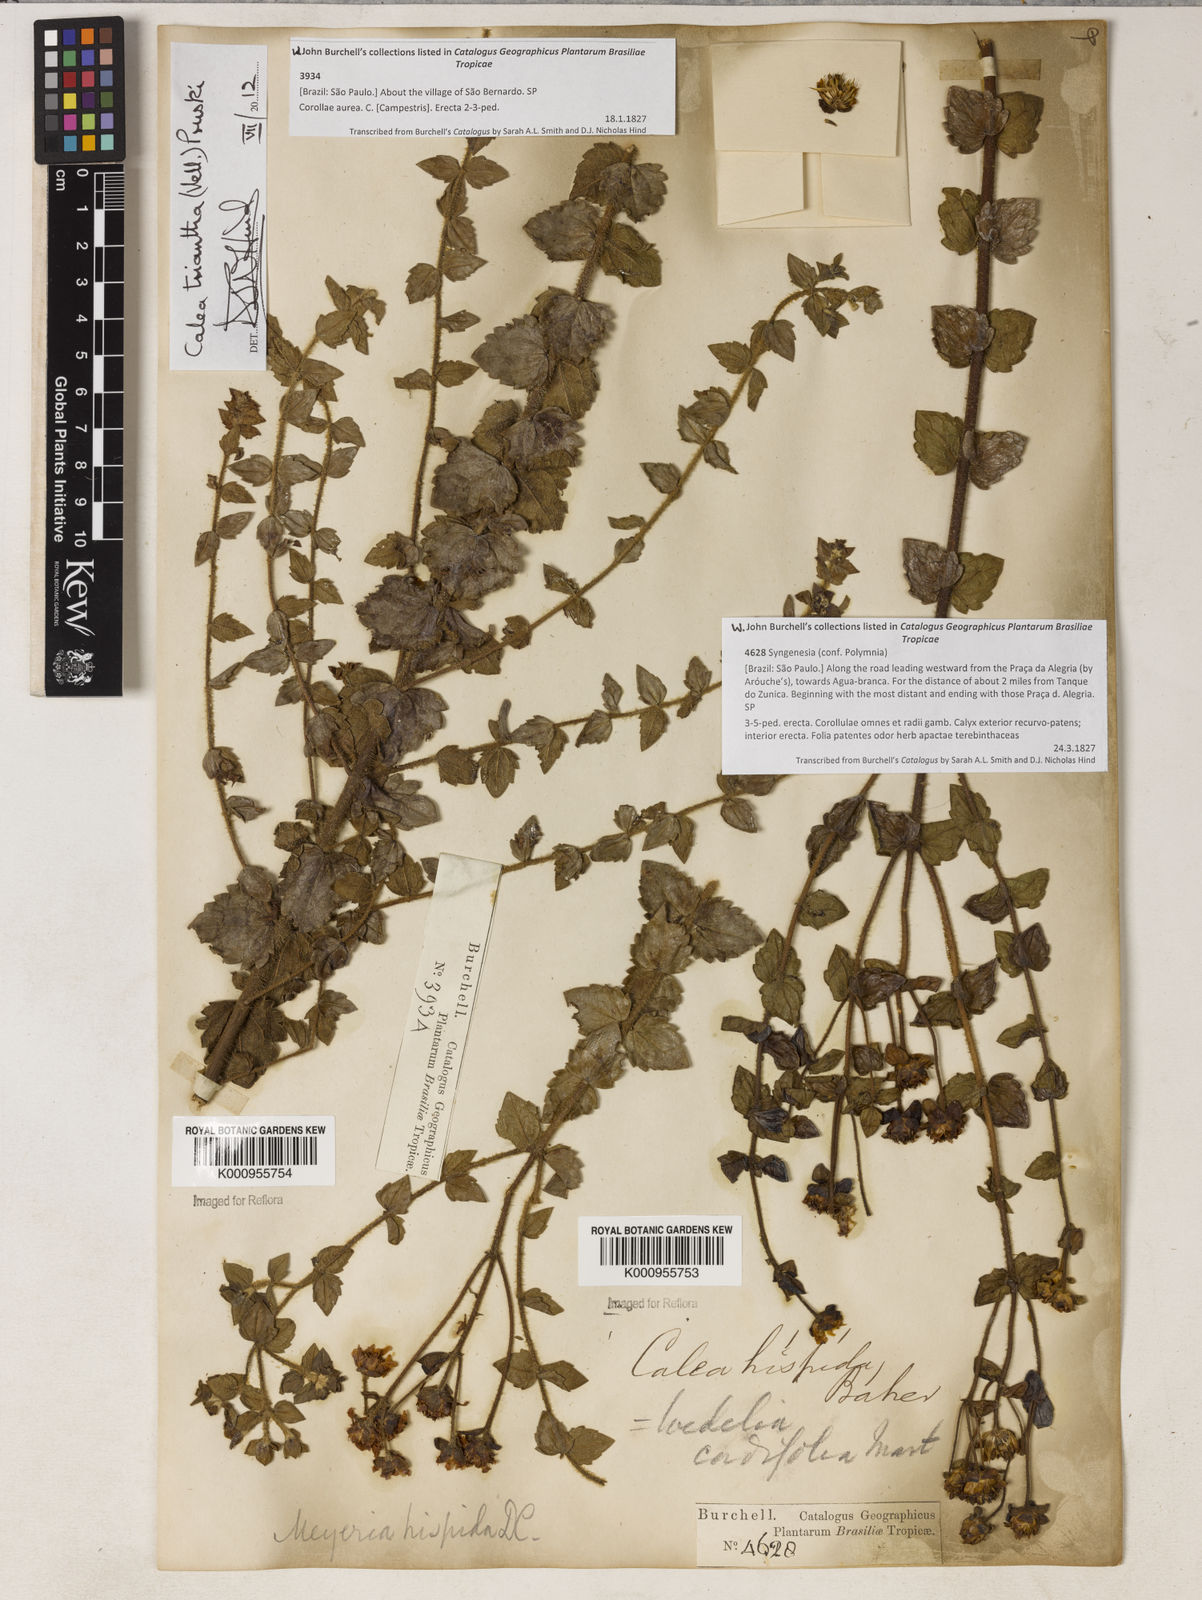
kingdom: Plantae
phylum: Tracheophyta
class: Magnoliopsida
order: Asterales
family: Asteraceae
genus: Calea
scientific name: Calea triantha
